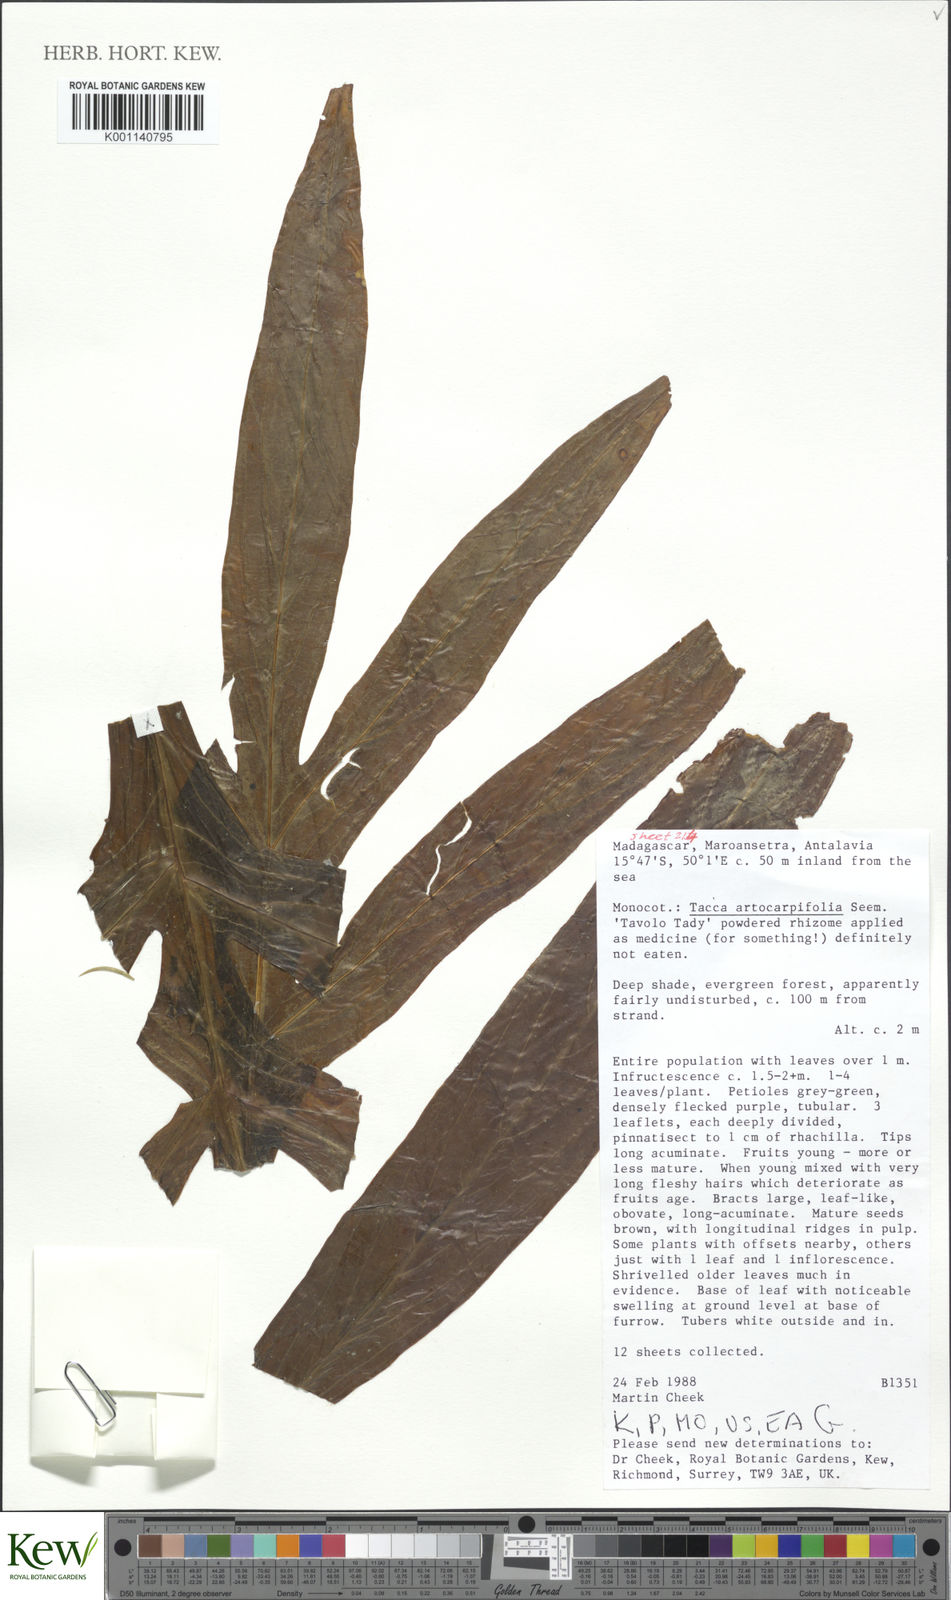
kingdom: Plantae
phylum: Tracheophyta
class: Liliopsida
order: Dioscoreales
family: Dioscoreaceae
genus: Tacca
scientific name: Tacca leontopetaloides
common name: Arrowroot
